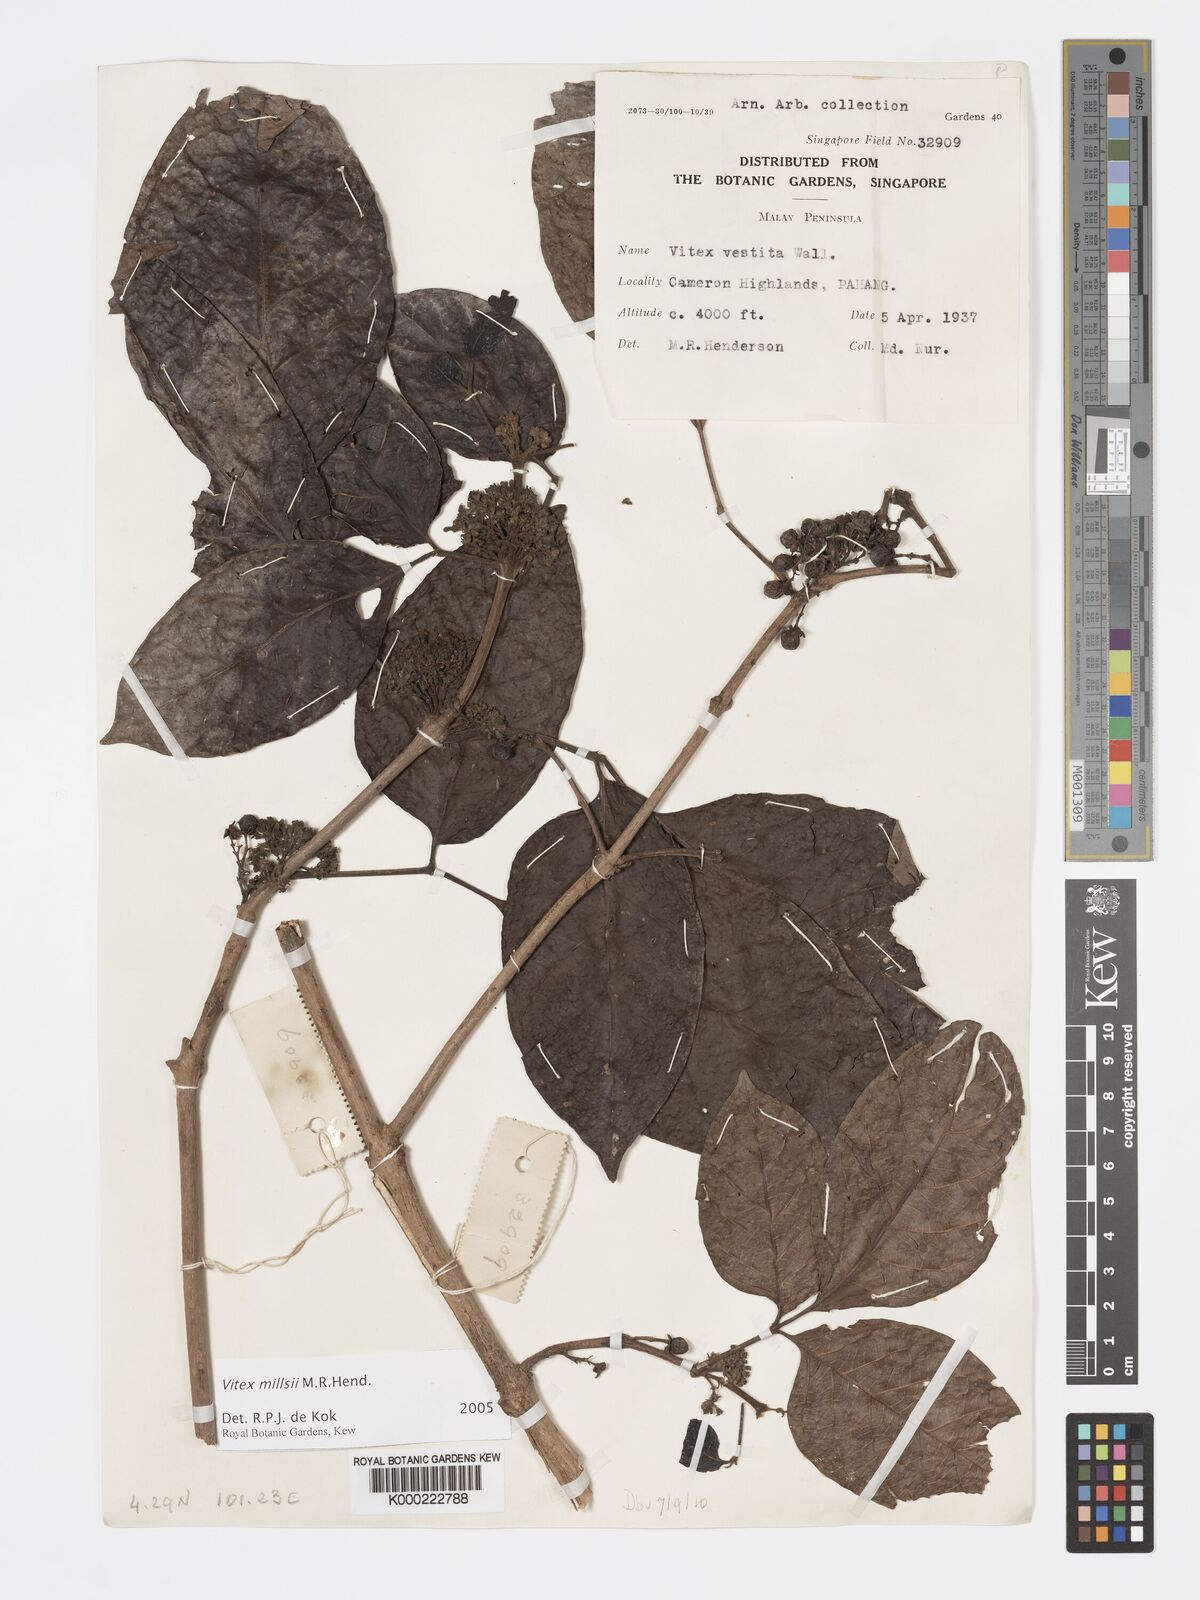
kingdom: Plantae
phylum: Tracheophyta
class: Magnoliopsida
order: Lamiales
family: Lamiaceae
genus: Vitex
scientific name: Vitex millsii
